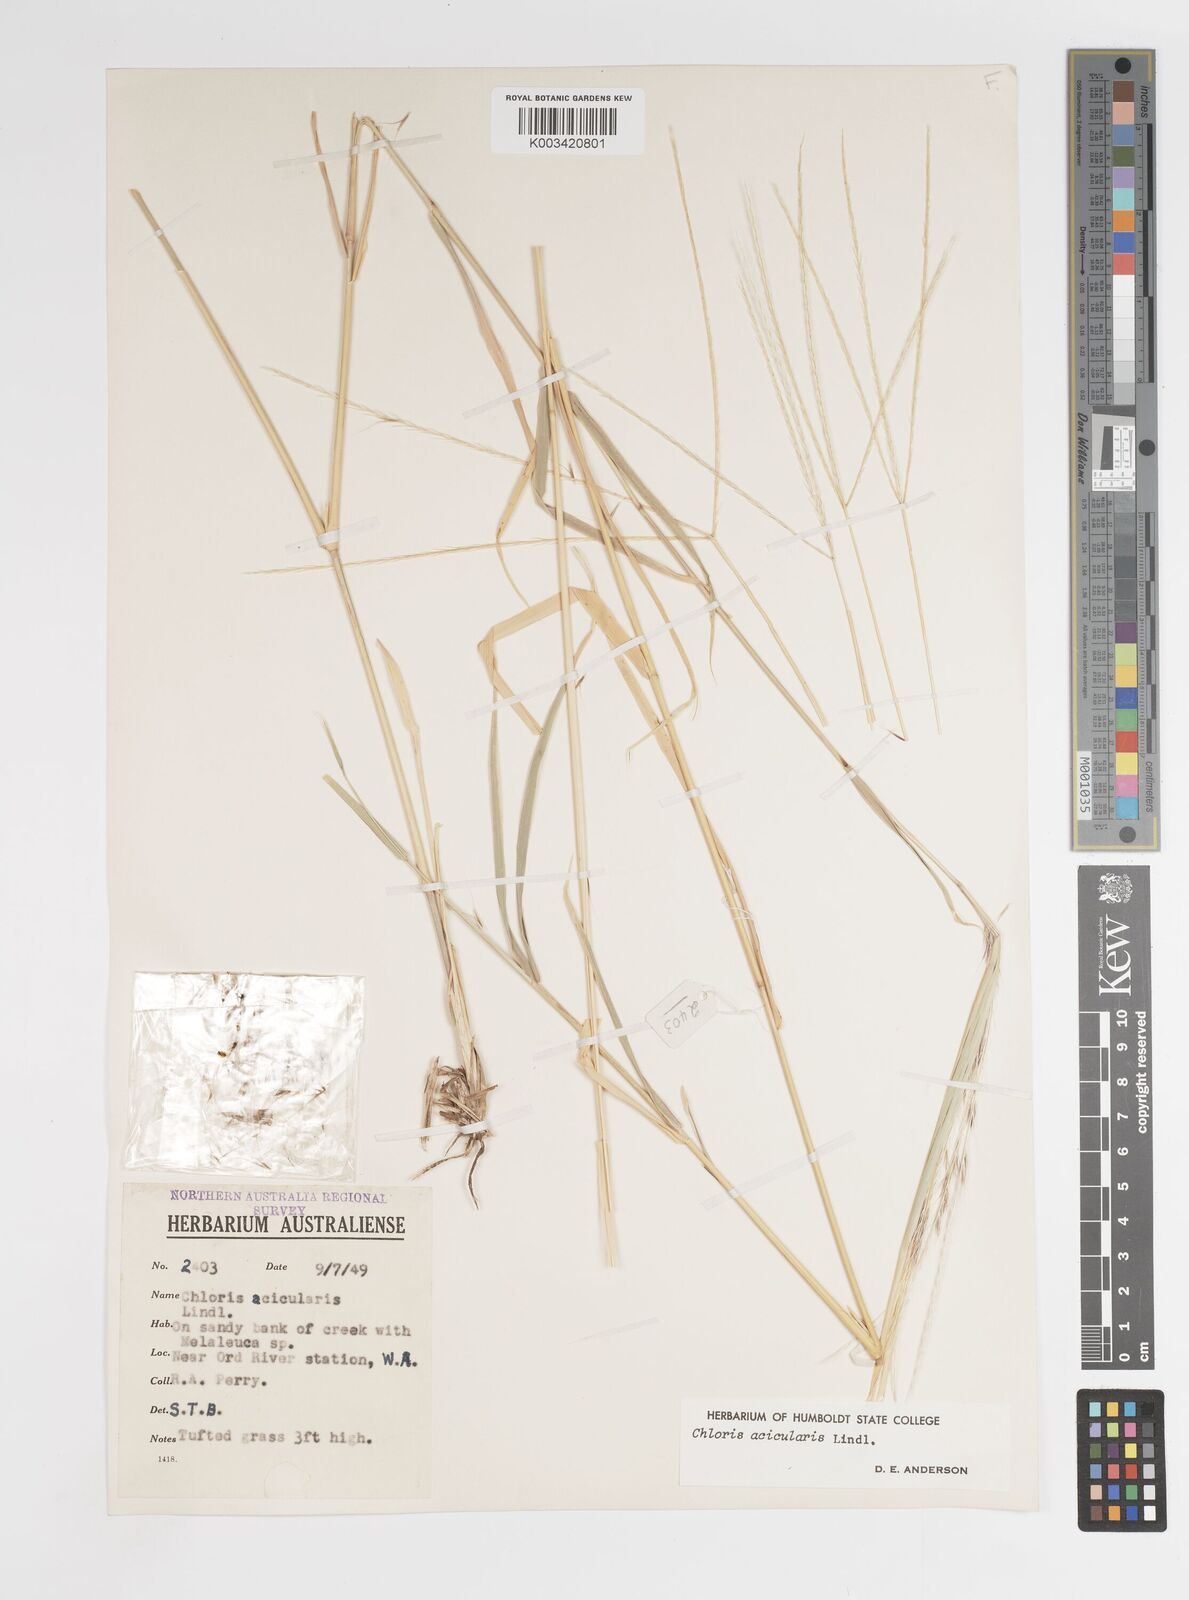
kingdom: Plantae
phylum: Tracheophyta
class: Liliopsida
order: Poales
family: Poaceae
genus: Enteropogon
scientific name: Enteropogon acicularis
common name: Curly windmill grass
